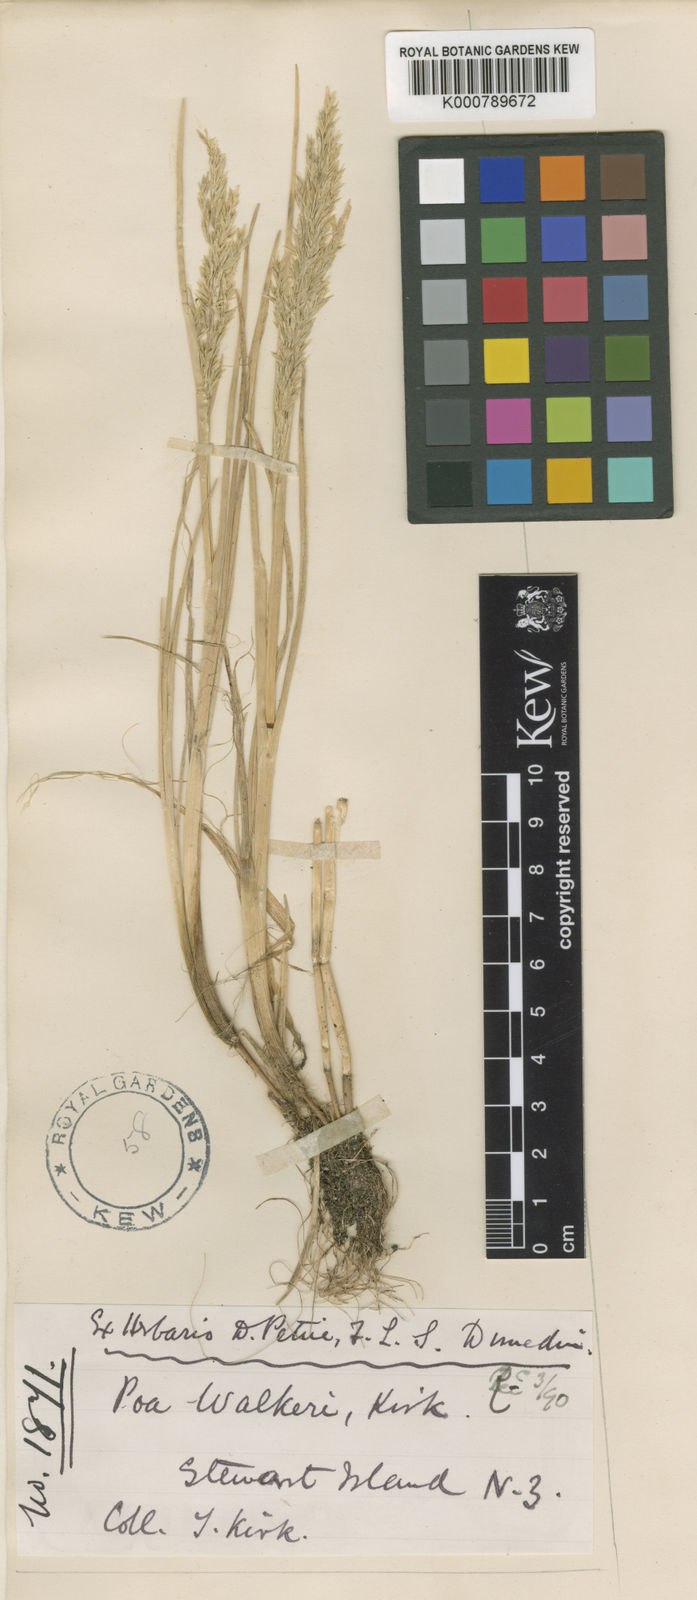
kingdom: Plantae
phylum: Tracheophyta
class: Liliopsida
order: Poales
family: Poaceae
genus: Puccinellia
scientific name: Puccinellia walkeri
